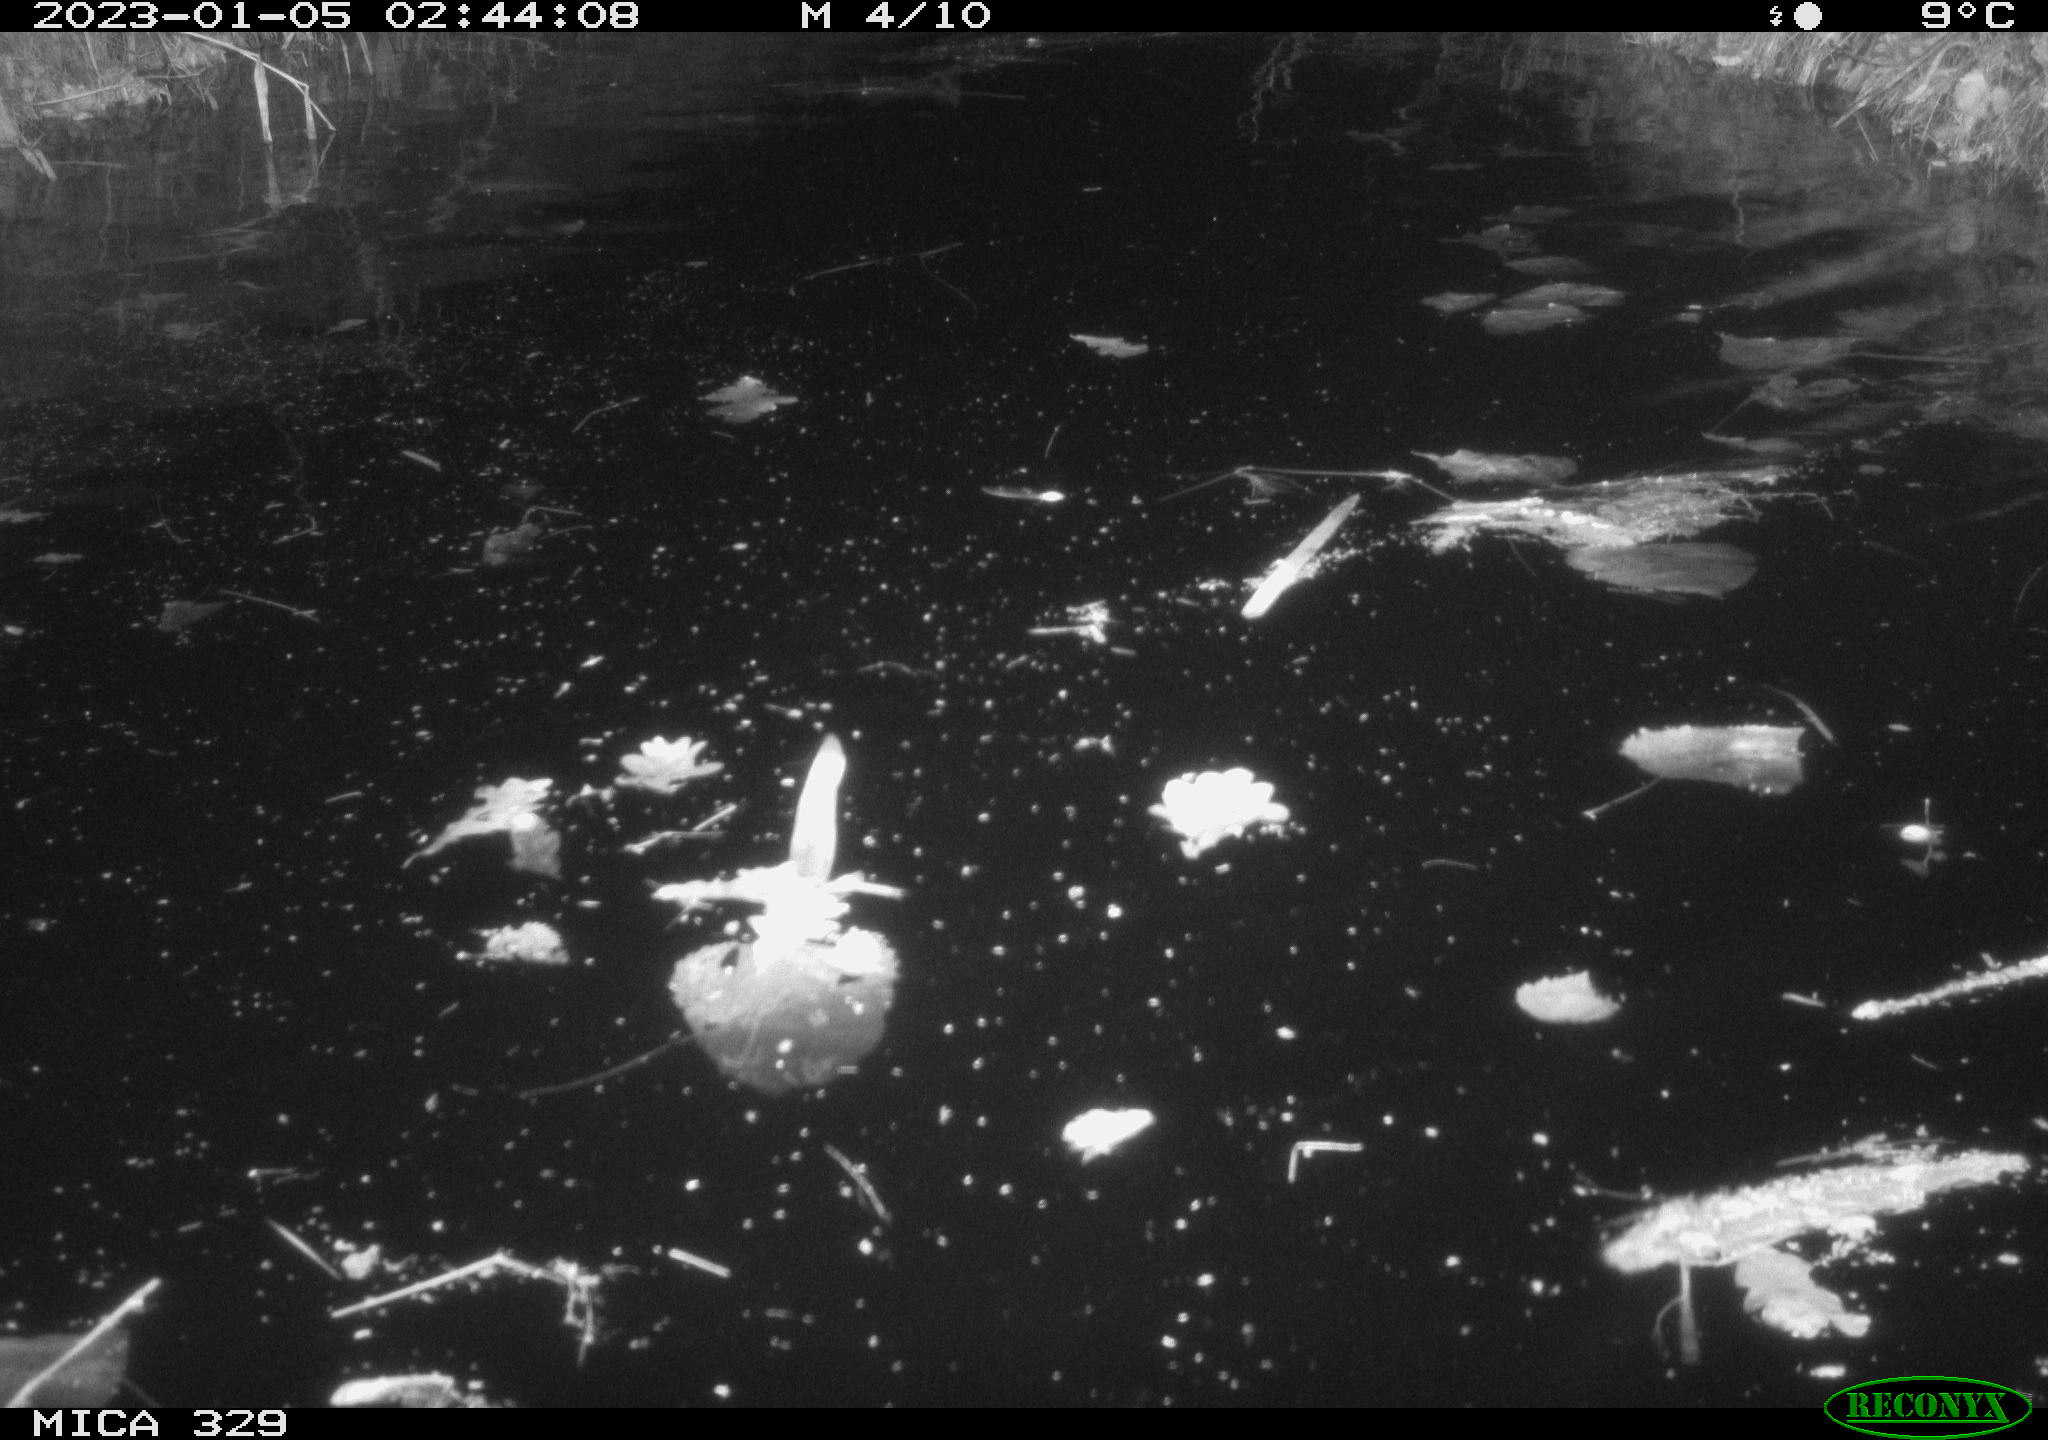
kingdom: Animalia
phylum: Chordata
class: Mammalia
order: Rodentia
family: Cricetidae
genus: Ondatra
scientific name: Ondatra zibethicus
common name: Muskrat
